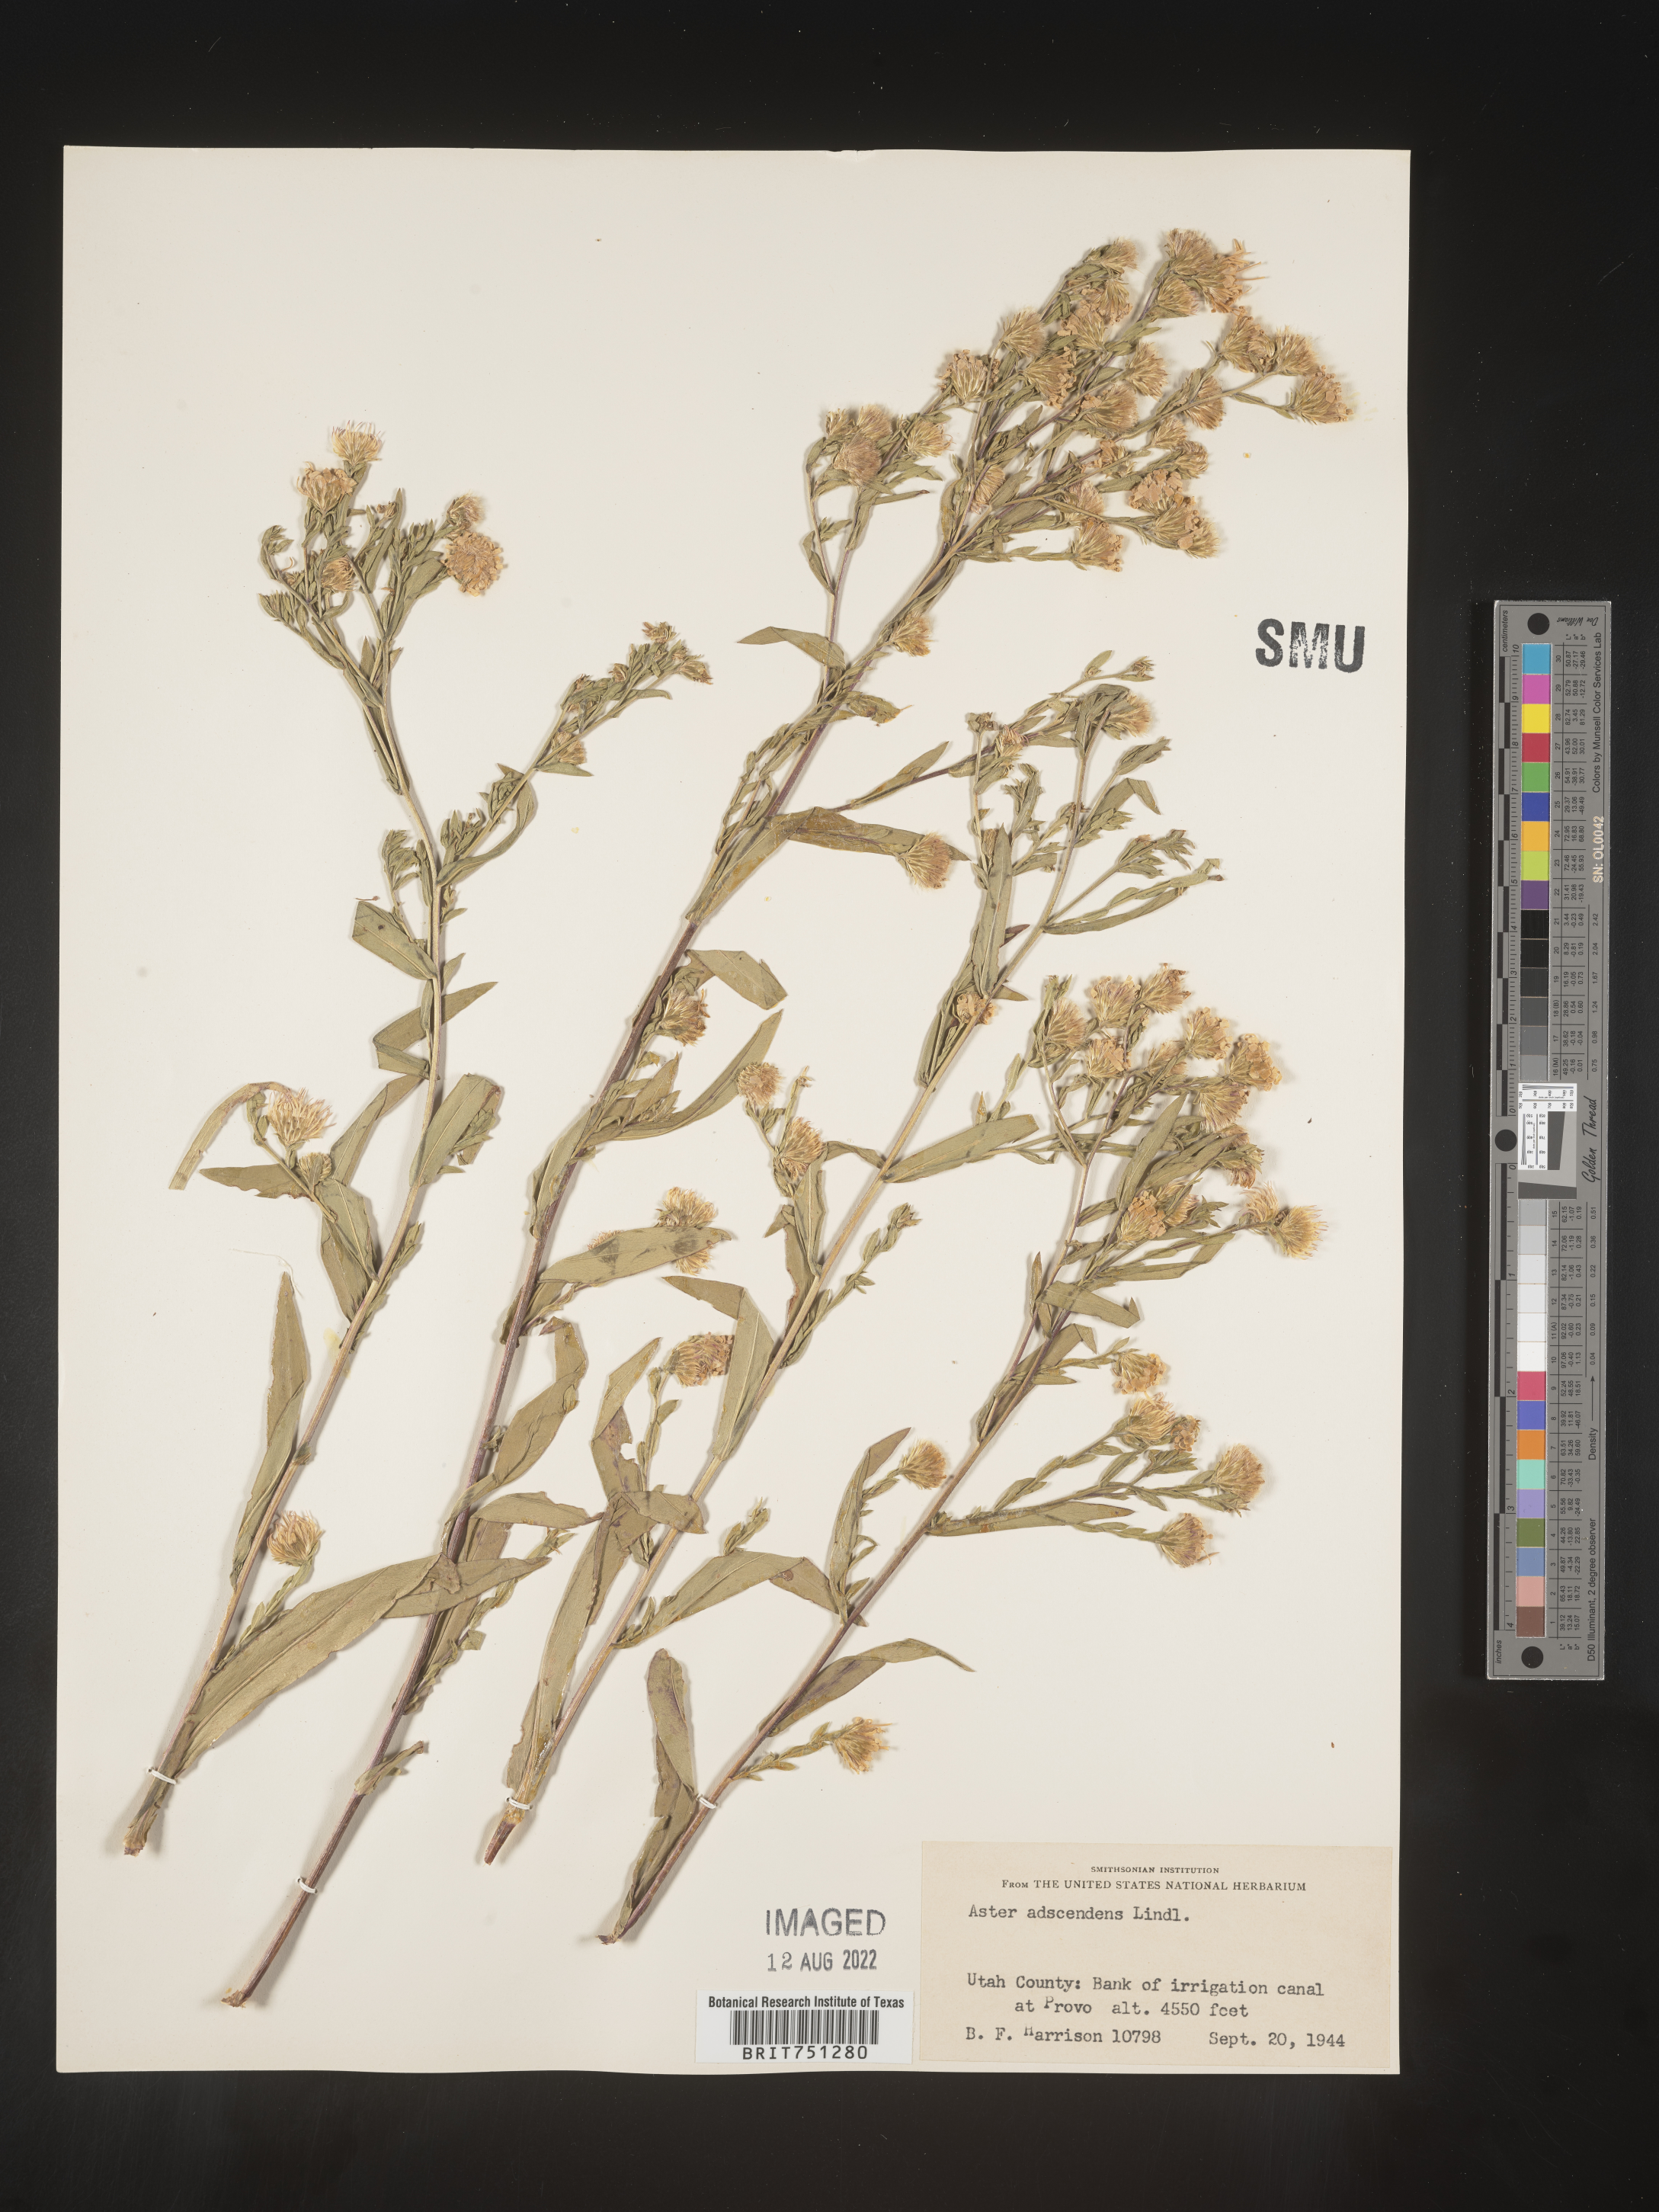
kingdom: Plantae
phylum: Tracheophyta
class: Magnoliopsida
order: Asterales
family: Asteraceae
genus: Symphyotrichum
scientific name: Symphyotrichum ascendens
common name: Intermountain aster
